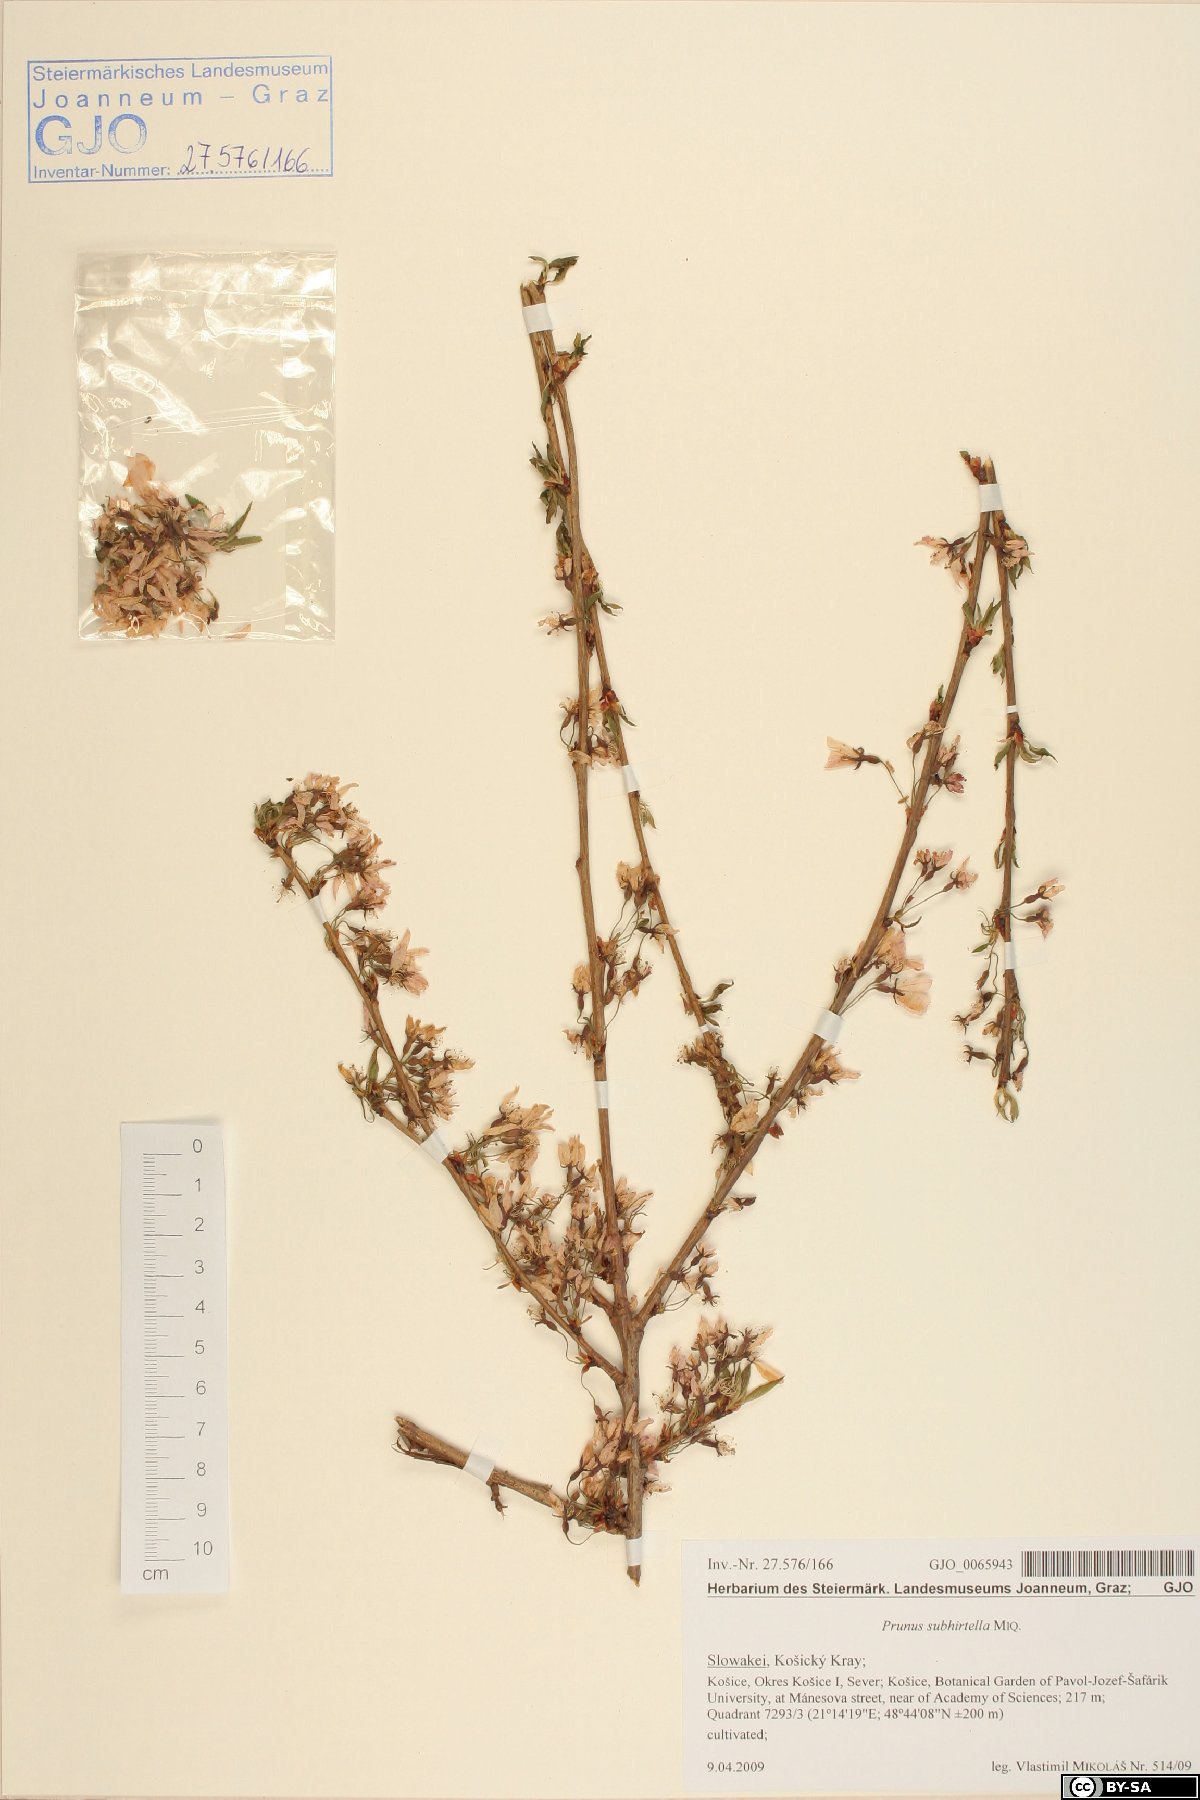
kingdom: Plantae
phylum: Tracheophyta
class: Magnoliopsida
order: Rosales
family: Rosaceae
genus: Prunus
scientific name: Prunus subhirtella
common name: Winter-flowering cherry
